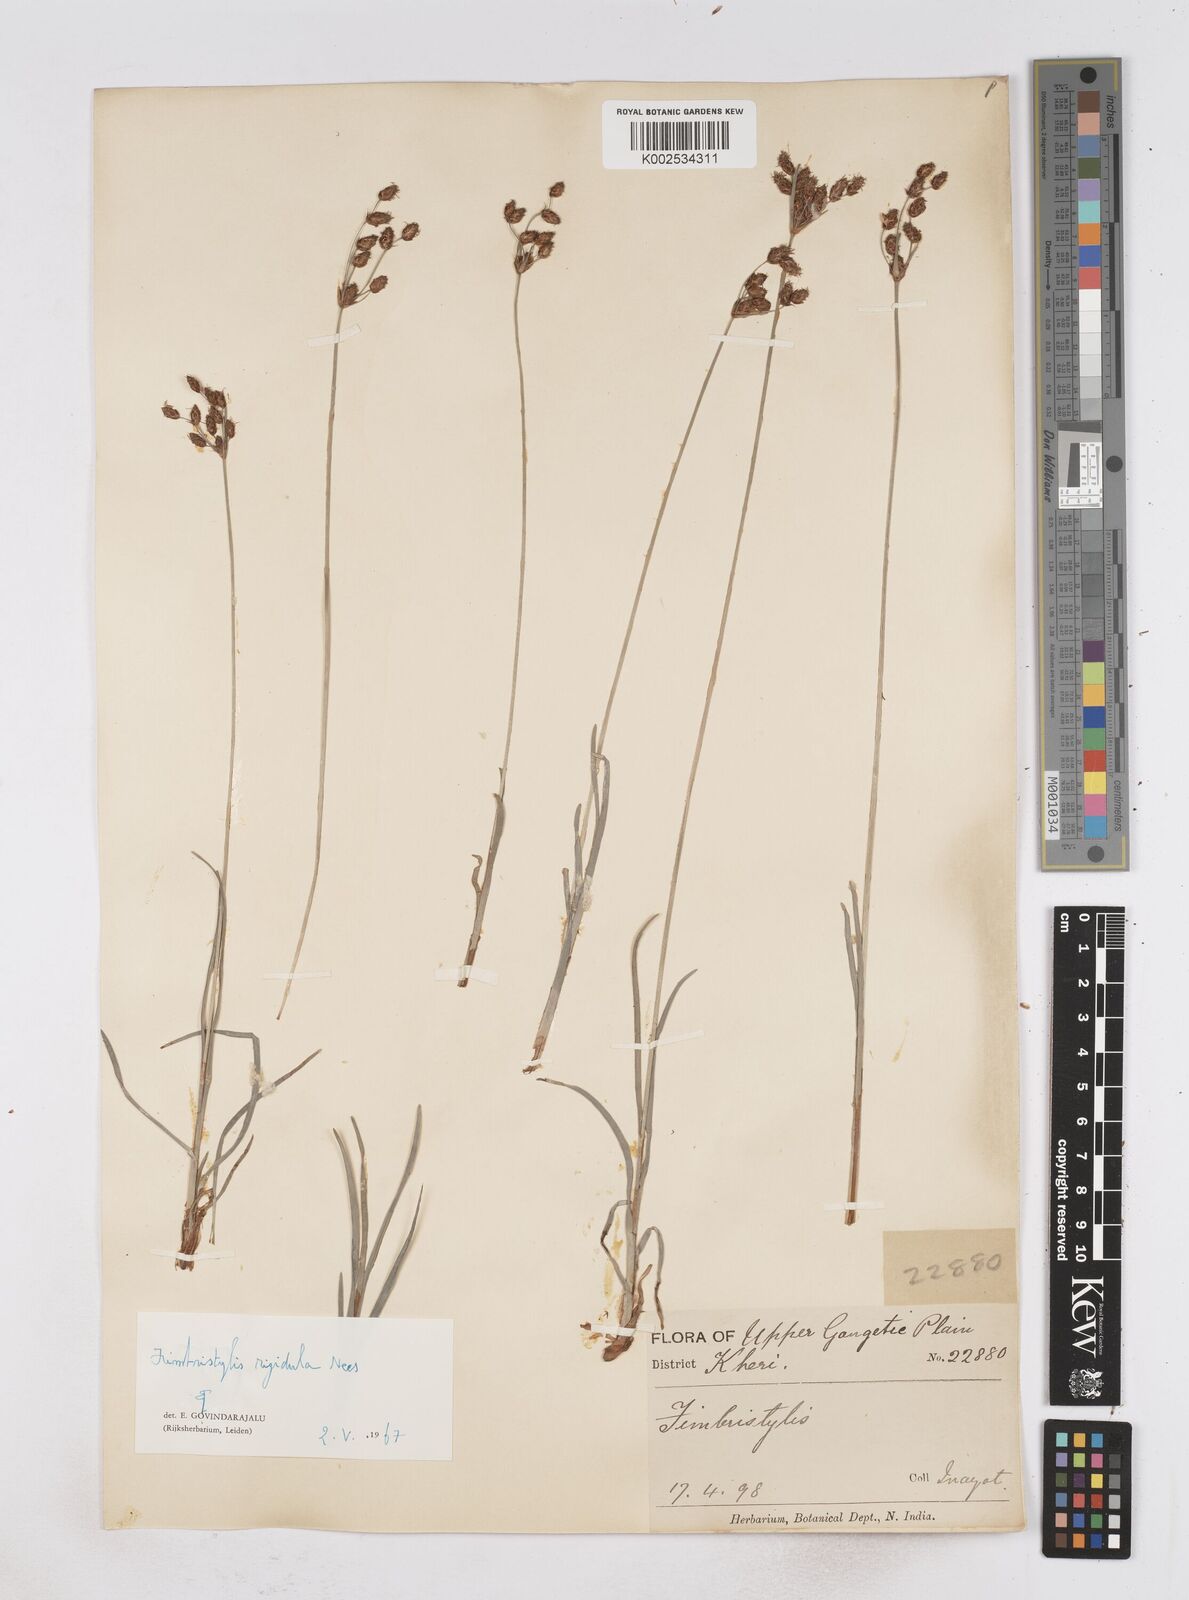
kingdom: Plantae
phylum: Tracheophyta
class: Liliopsida
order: Poales
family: Cyperaceae
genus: Fimbristylis
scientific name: Fimbristylis rigidula
